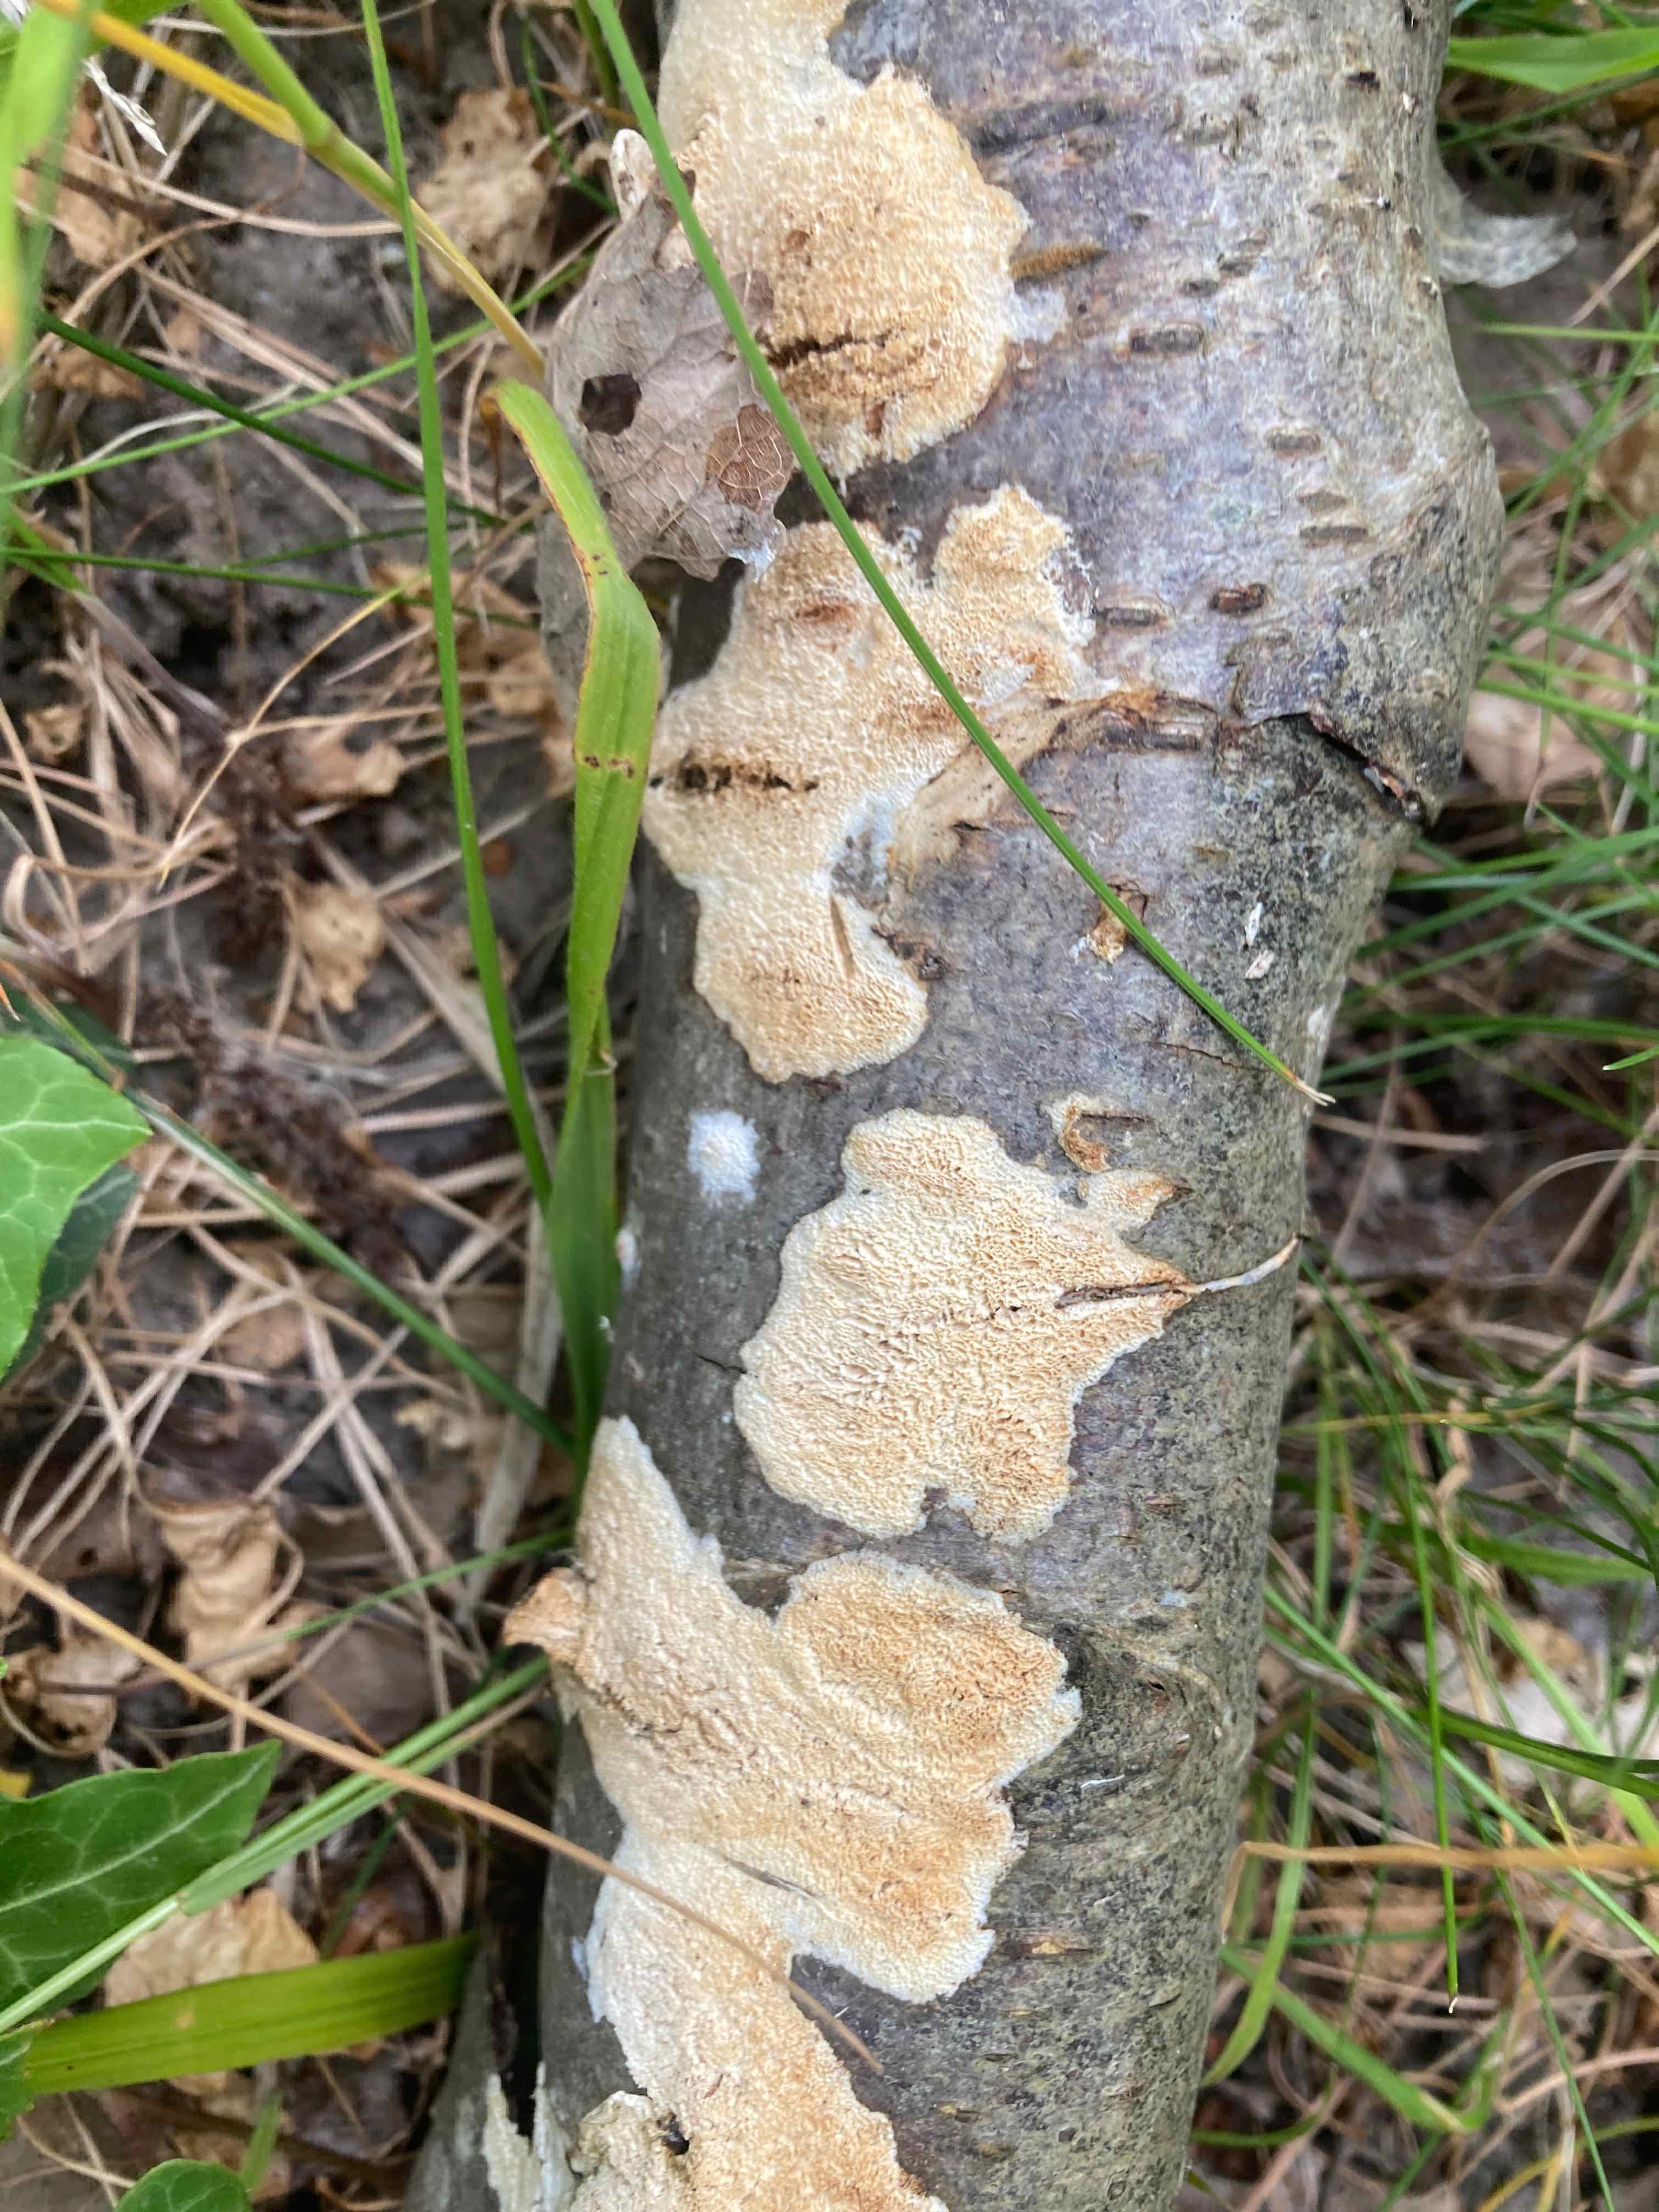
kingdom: Fungi
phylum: Basidiomycota
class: Agaricomycetes
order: Hymenochaetales
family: Schizoporaceae
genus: Xylodon
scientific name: Xylodon subtropicus
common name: labyrint-tandsvamp
